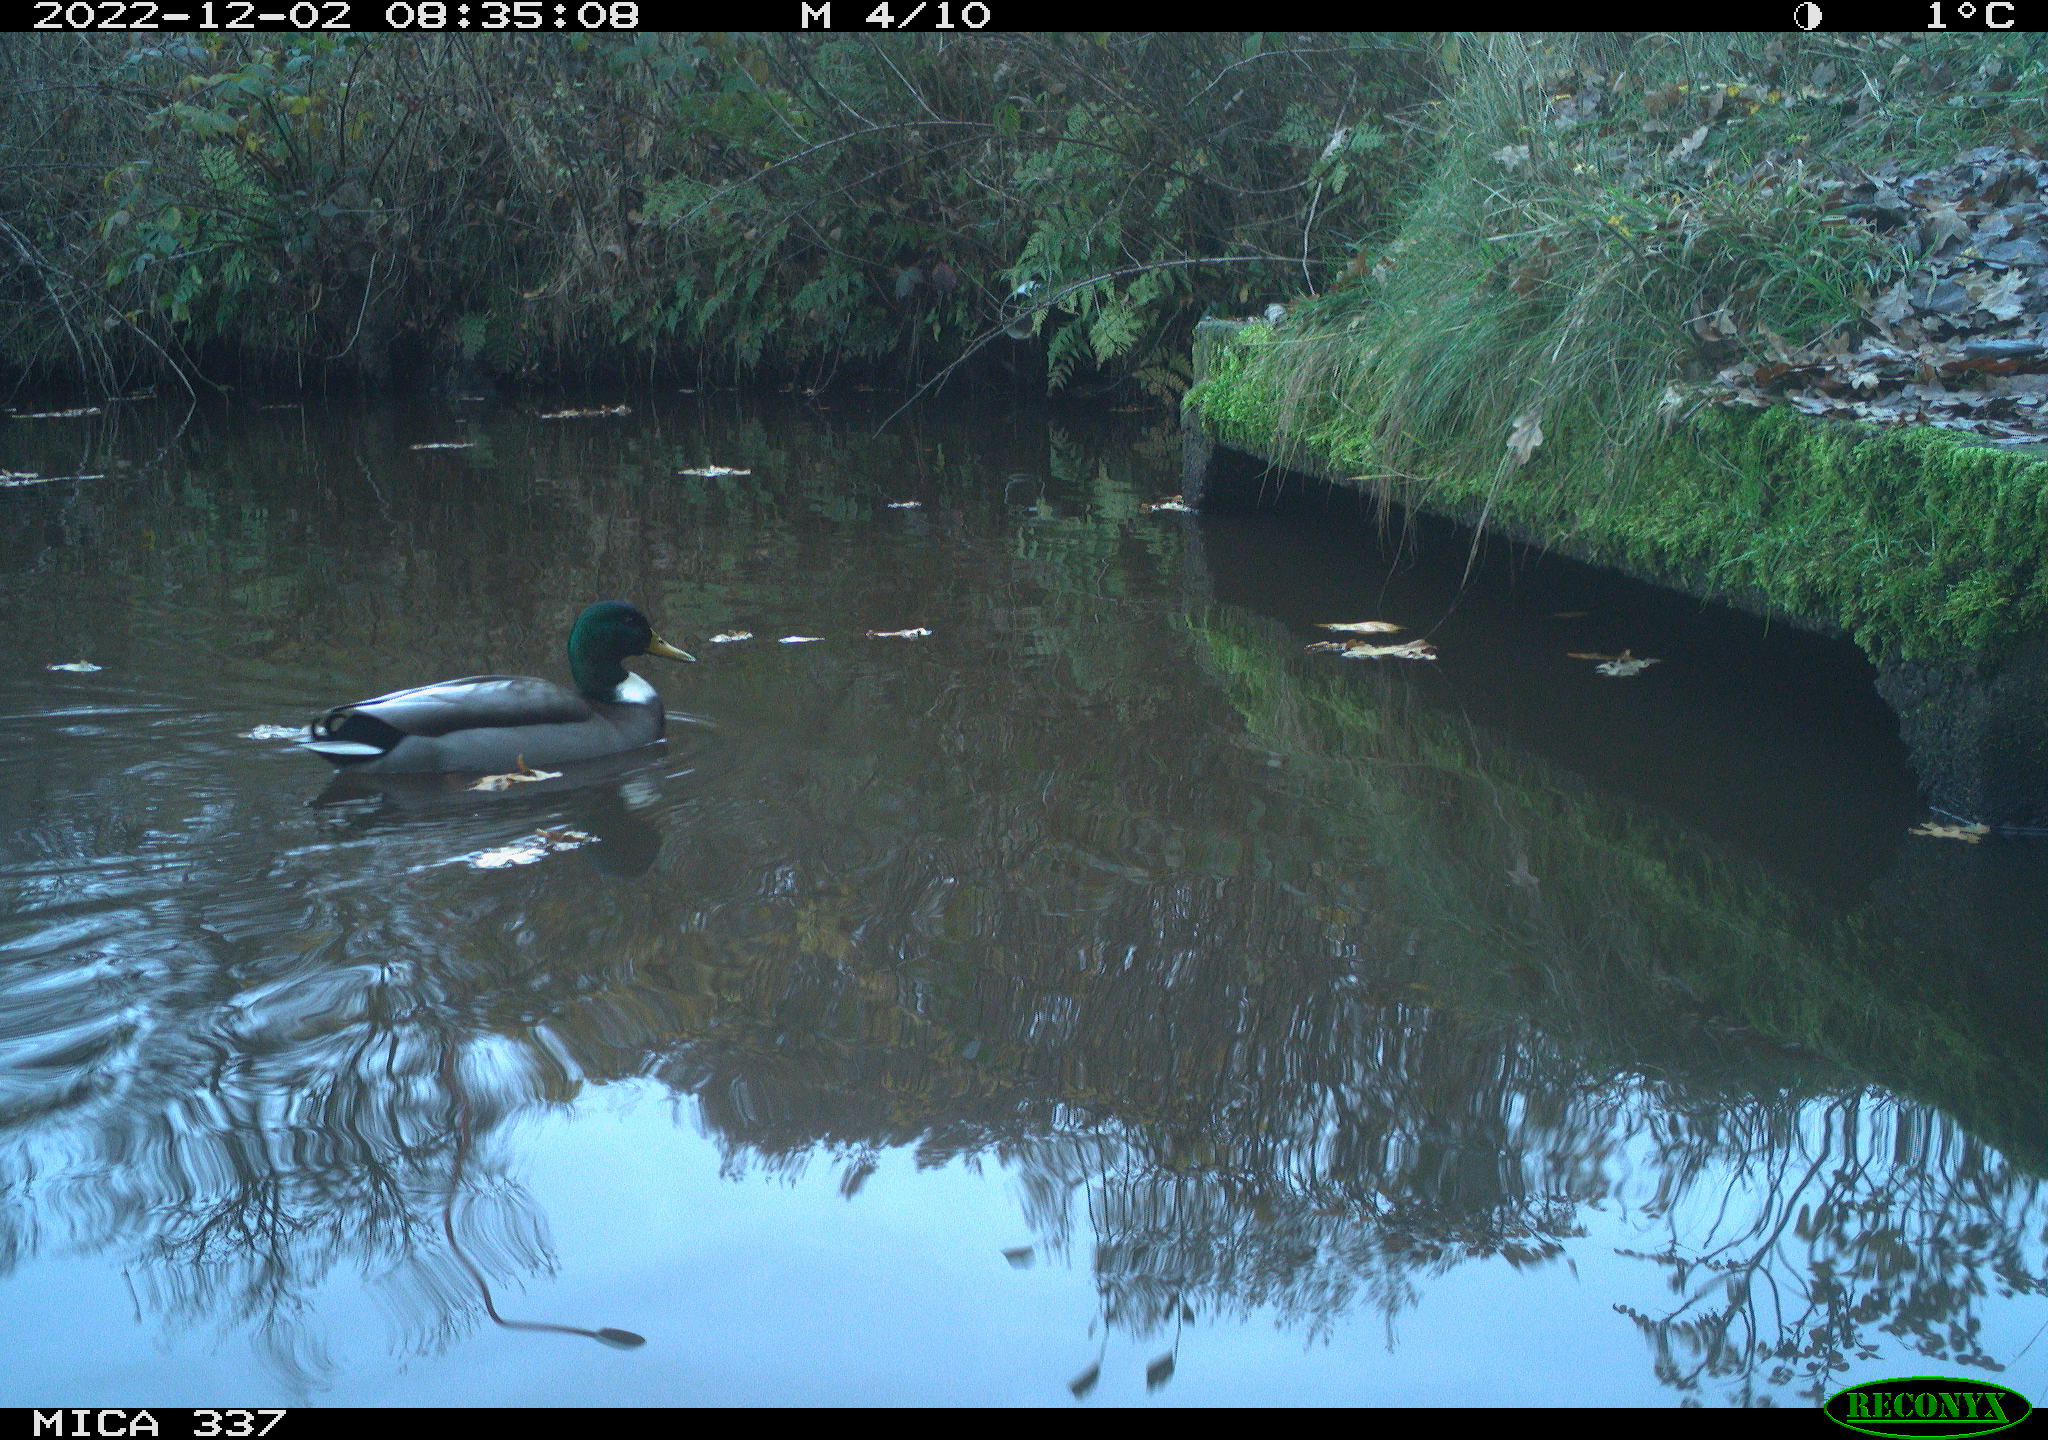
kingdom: Animalia
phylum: Chordata
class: Aves
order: Anseriformes
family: Anatidae
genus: Anas
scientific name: Anas
